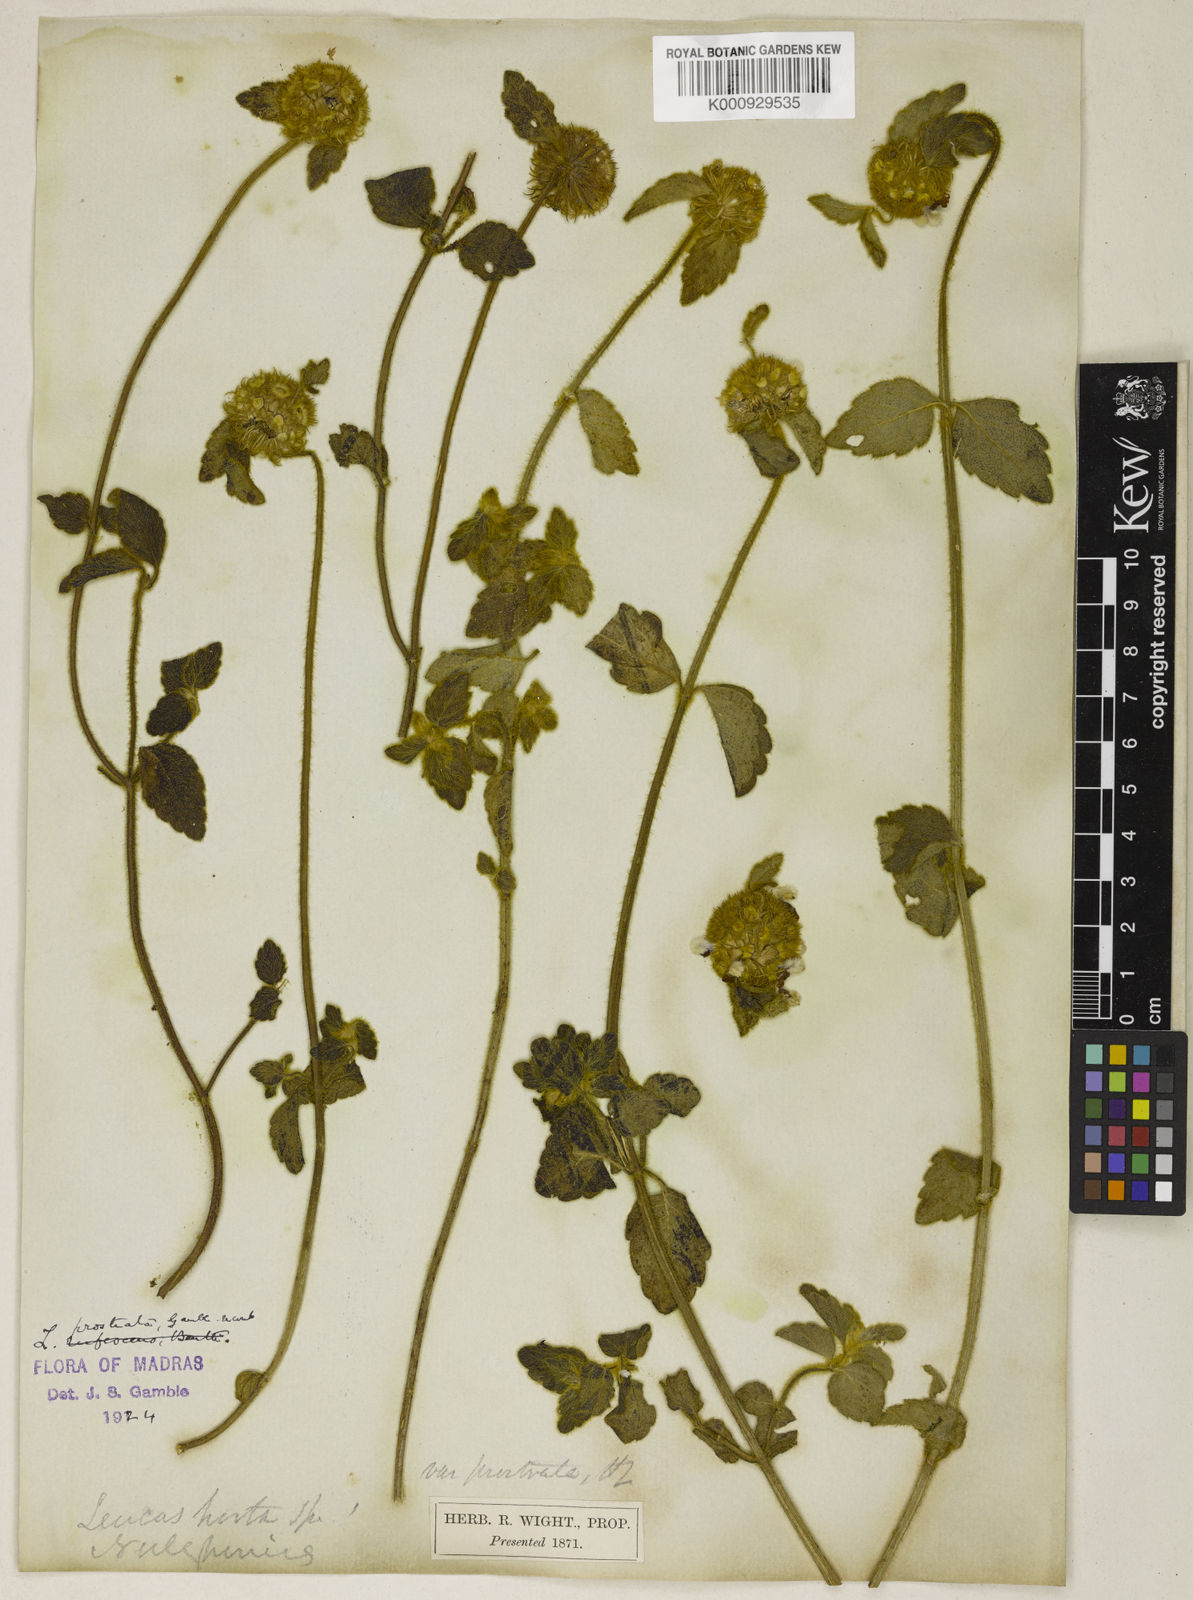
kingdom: Plantae
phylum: Tracheophyta
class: Magnoliopsida
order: Lamiales
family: Lamiaceae
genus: Leucas
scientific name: Leucas hirta
